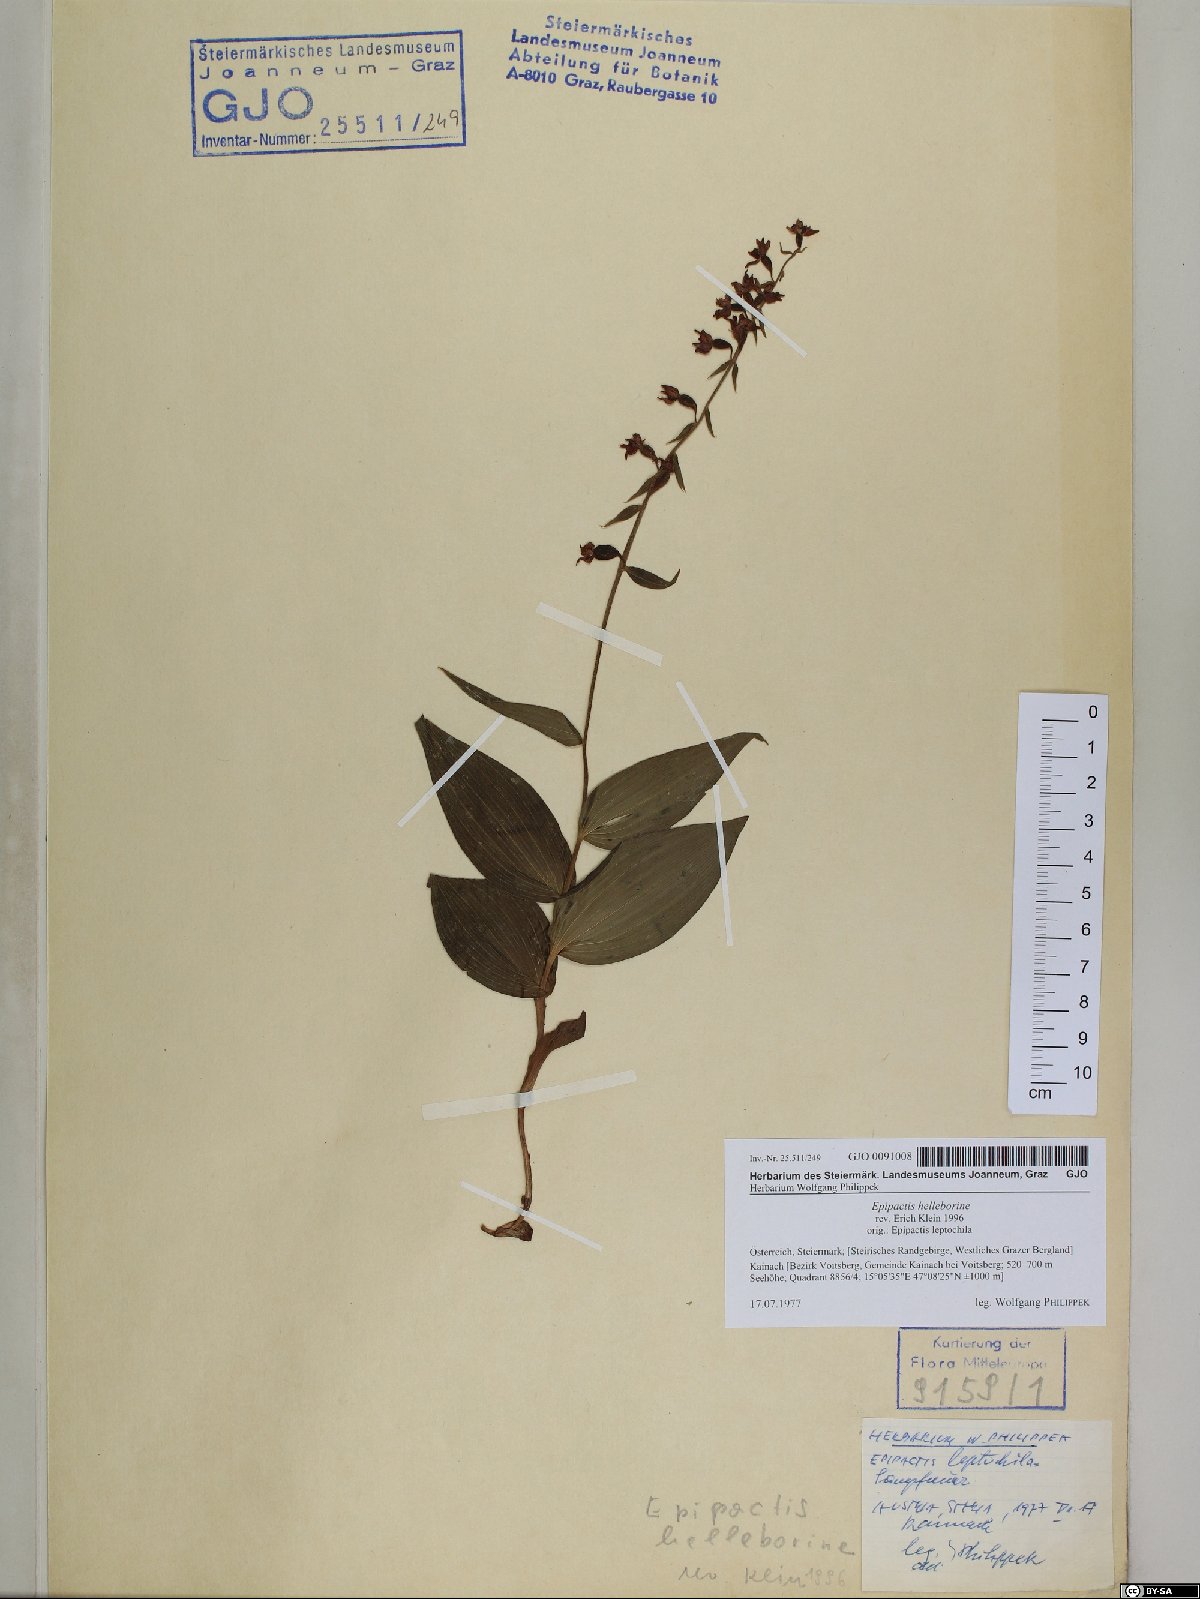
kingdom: Plantae
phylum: Tracheophyta
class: Liliopsida
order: Asparagales
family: Orchidaceae
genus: Epipactis
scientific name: Epipactis helleborine
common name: Broad-leaved helleborine
